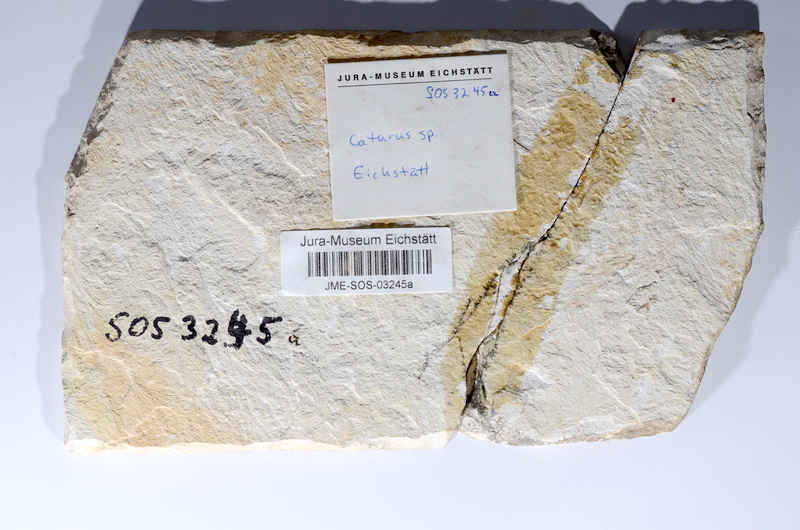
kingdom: Animalia
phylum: Chordata
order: Amiiformes
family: Caturidae
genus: Caturus
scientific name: Caturus
